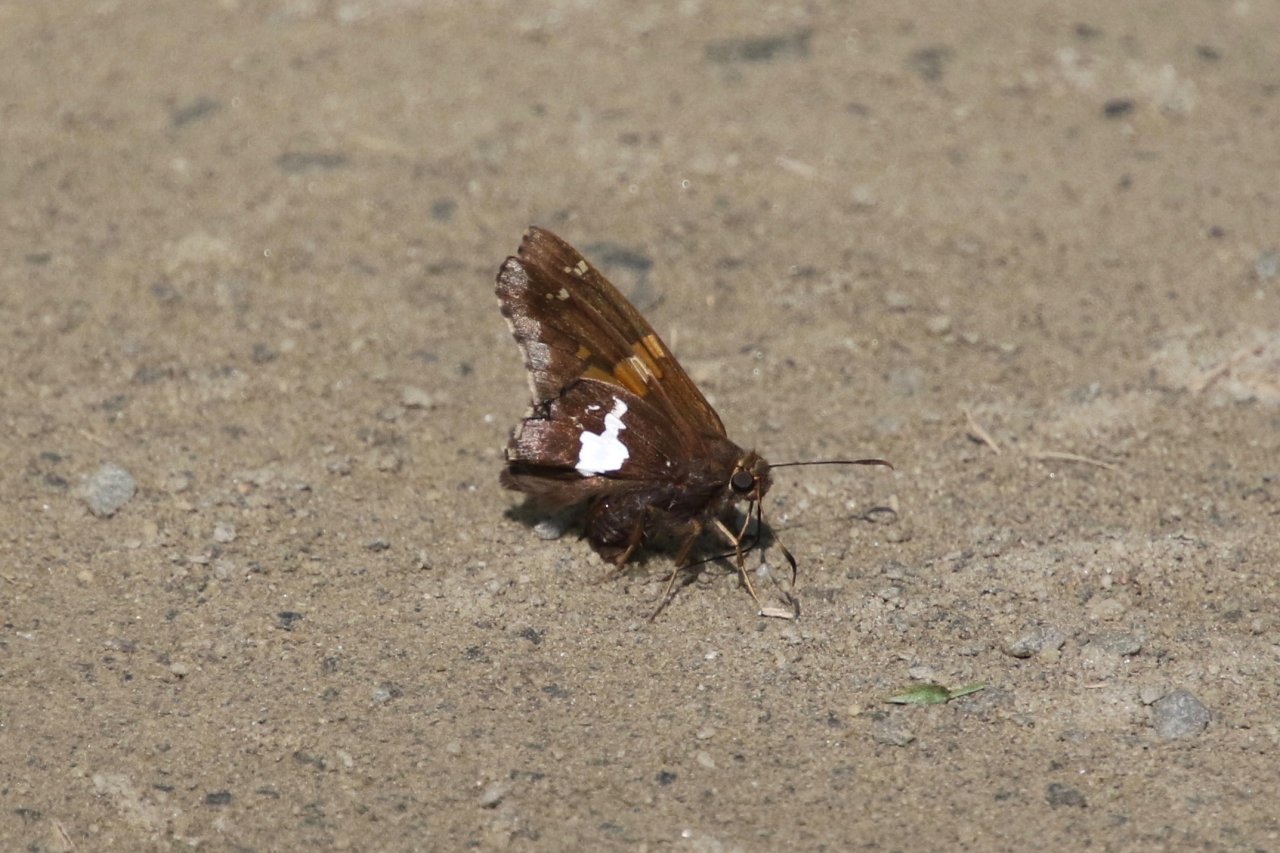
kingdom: Animalia
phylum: Arthropoda
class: Insecta
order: Lepidoptera
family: Hesperiidae
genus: Epargyreus
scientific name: Epargyreus clarus
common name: Silver-spotted Skipper
